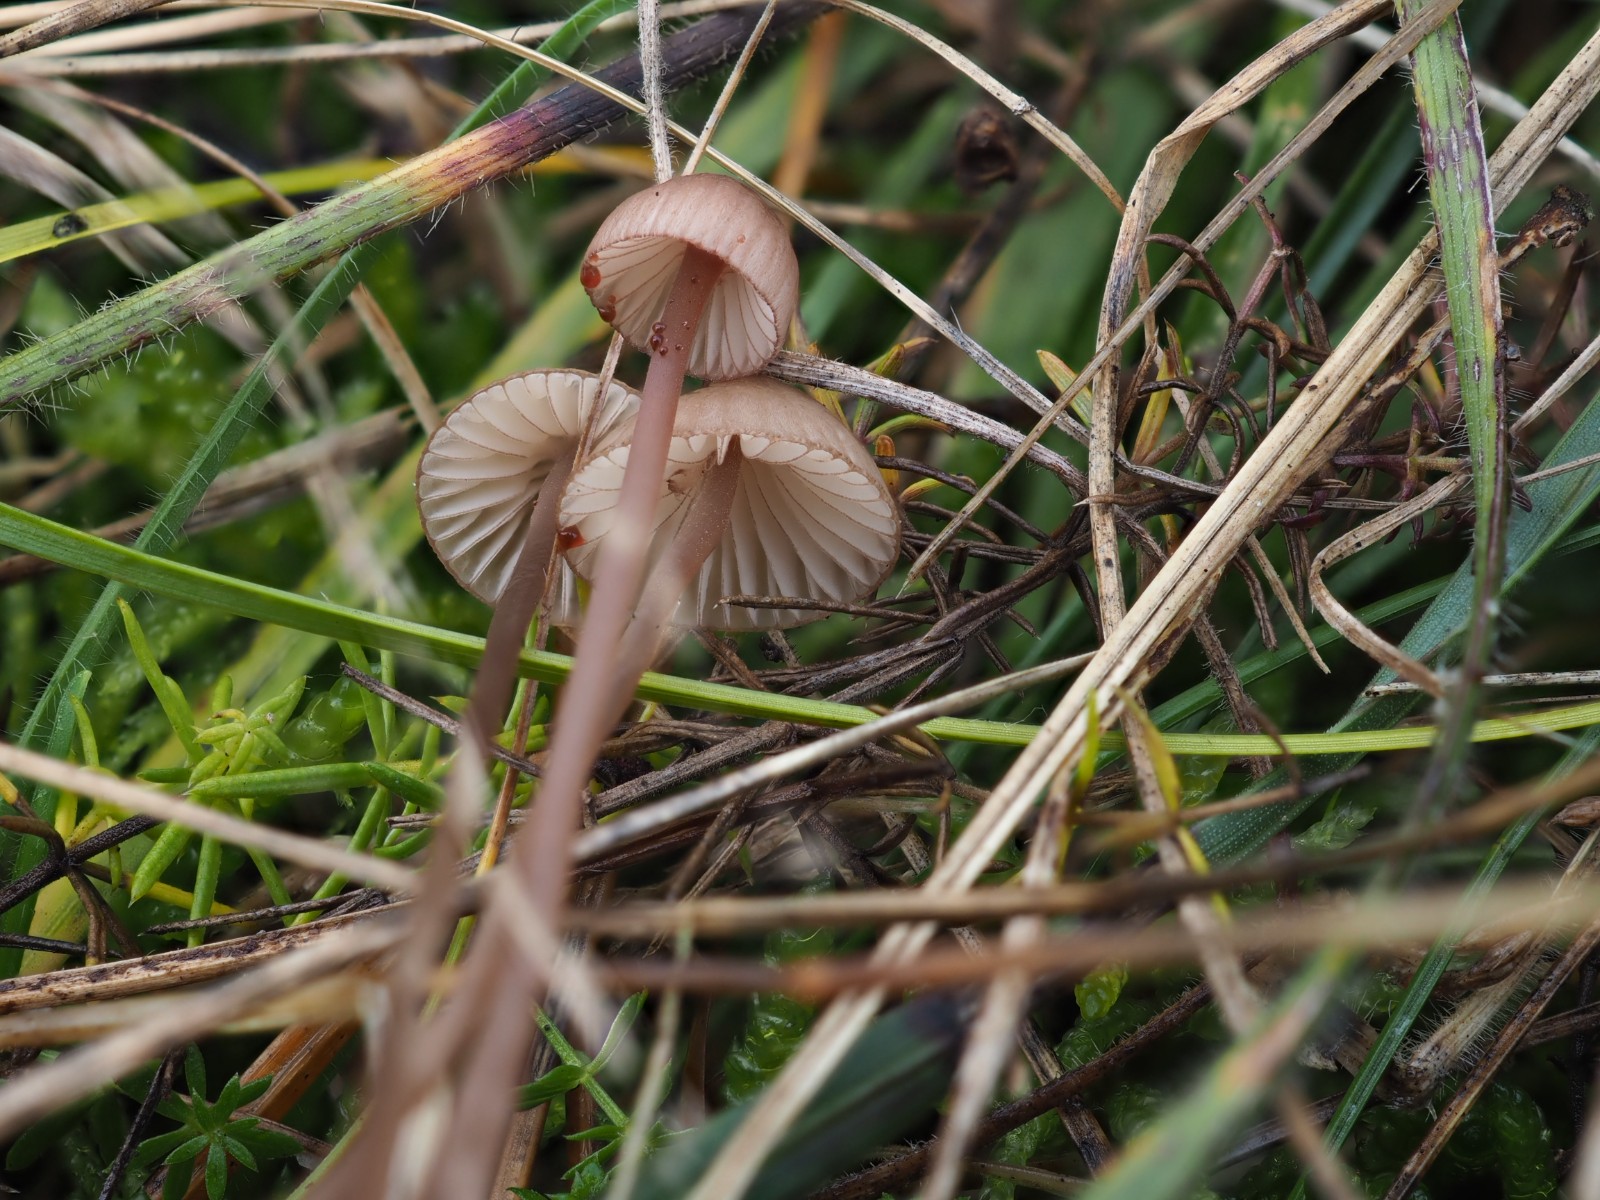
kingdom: Fungi
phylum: Basidiomycota
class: Agaricomycetes
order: Agaricales
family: Mycenaceae
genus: Mycena
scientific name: Mycena sanguinolenta
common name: rødmælket huesvamp
